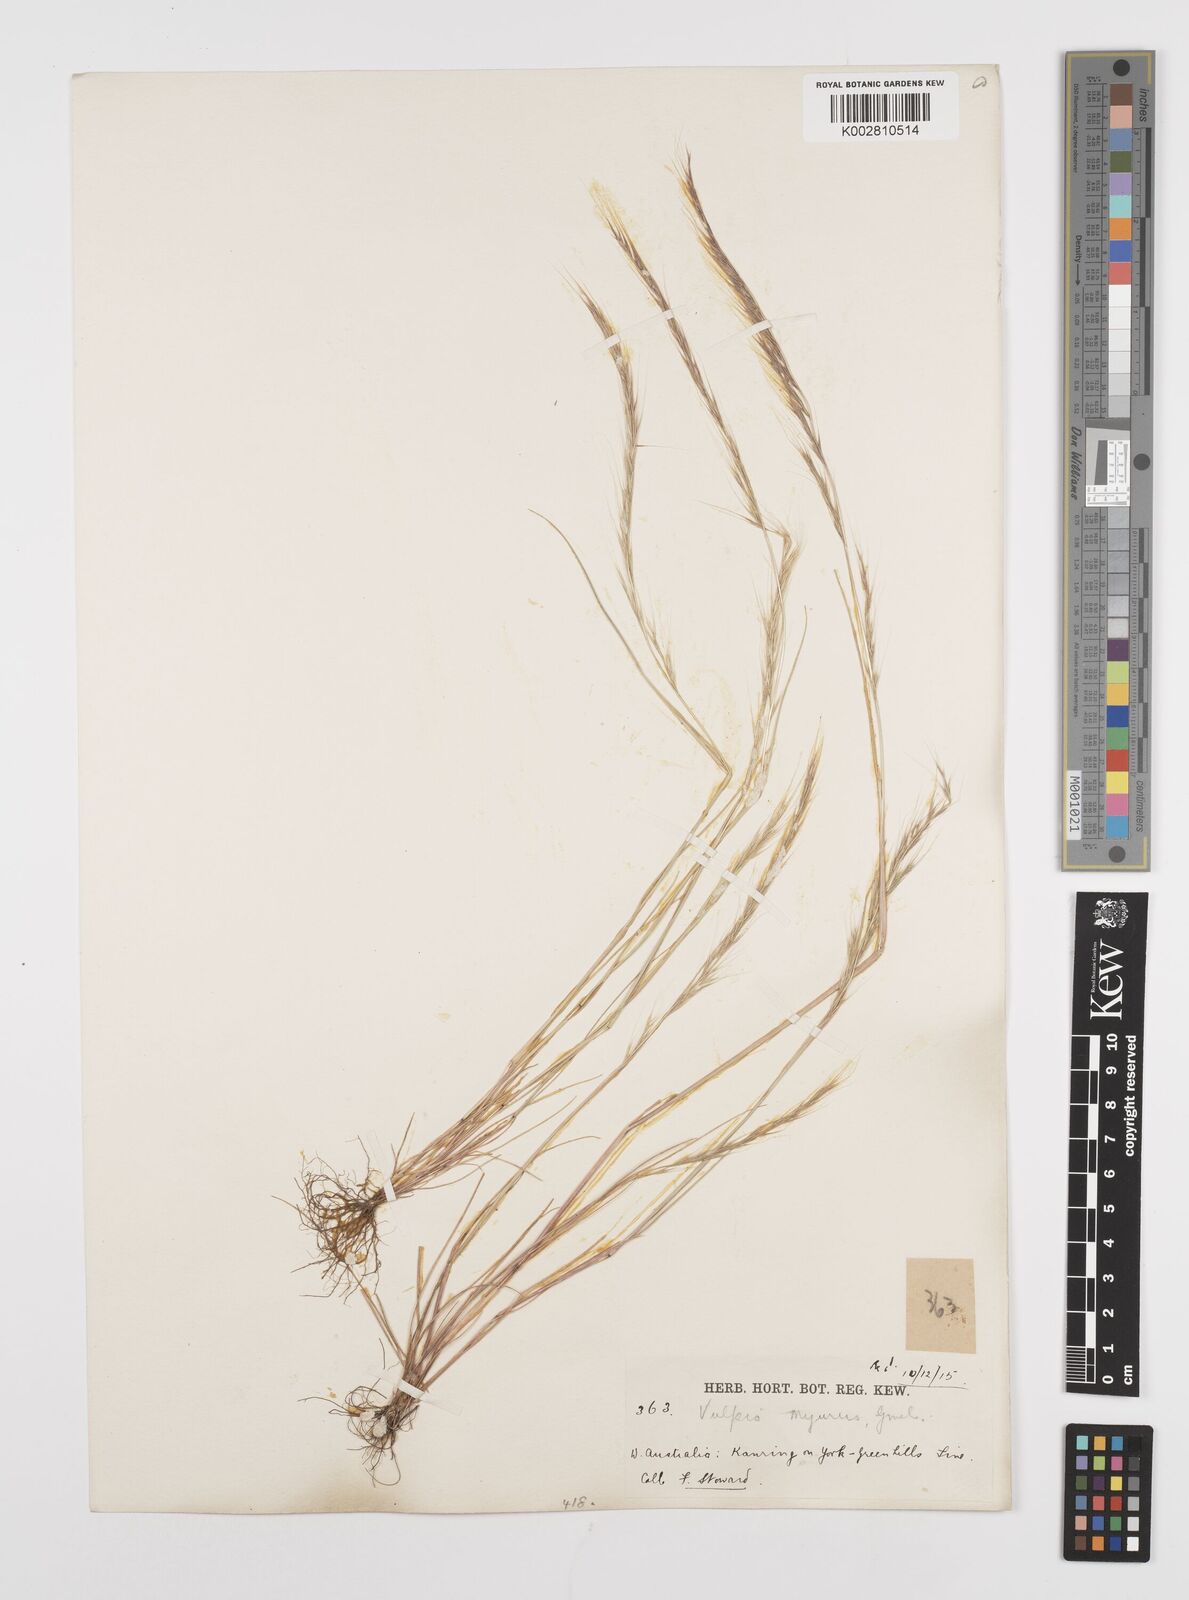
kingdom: Plantae
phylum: Tracheophyta
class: Liliopsida
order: Poales
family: Poaceae
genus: Festuca
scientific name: Festuca myuros
